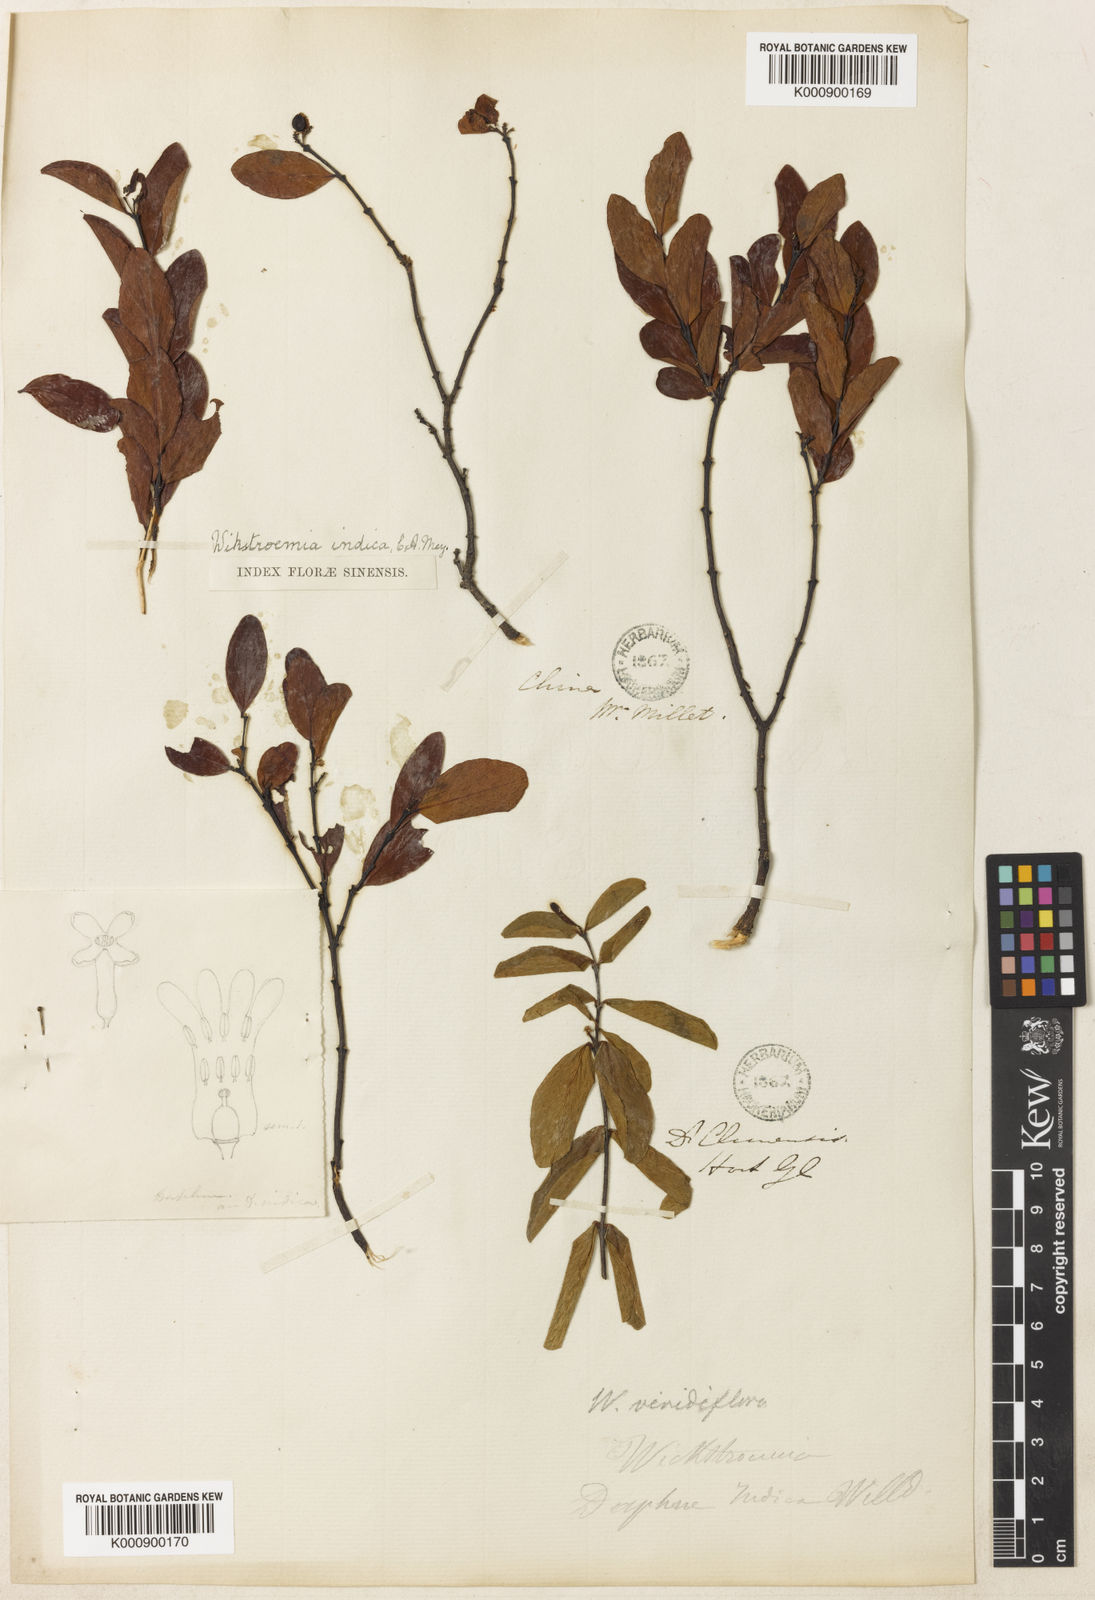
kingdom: Plantae
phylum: Tracheophyta
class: Magnoliopsida
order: Malvales
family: Thymelaeaceae
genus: Wikstroemia
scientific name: Wikstroemia indica
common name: Tiebush
